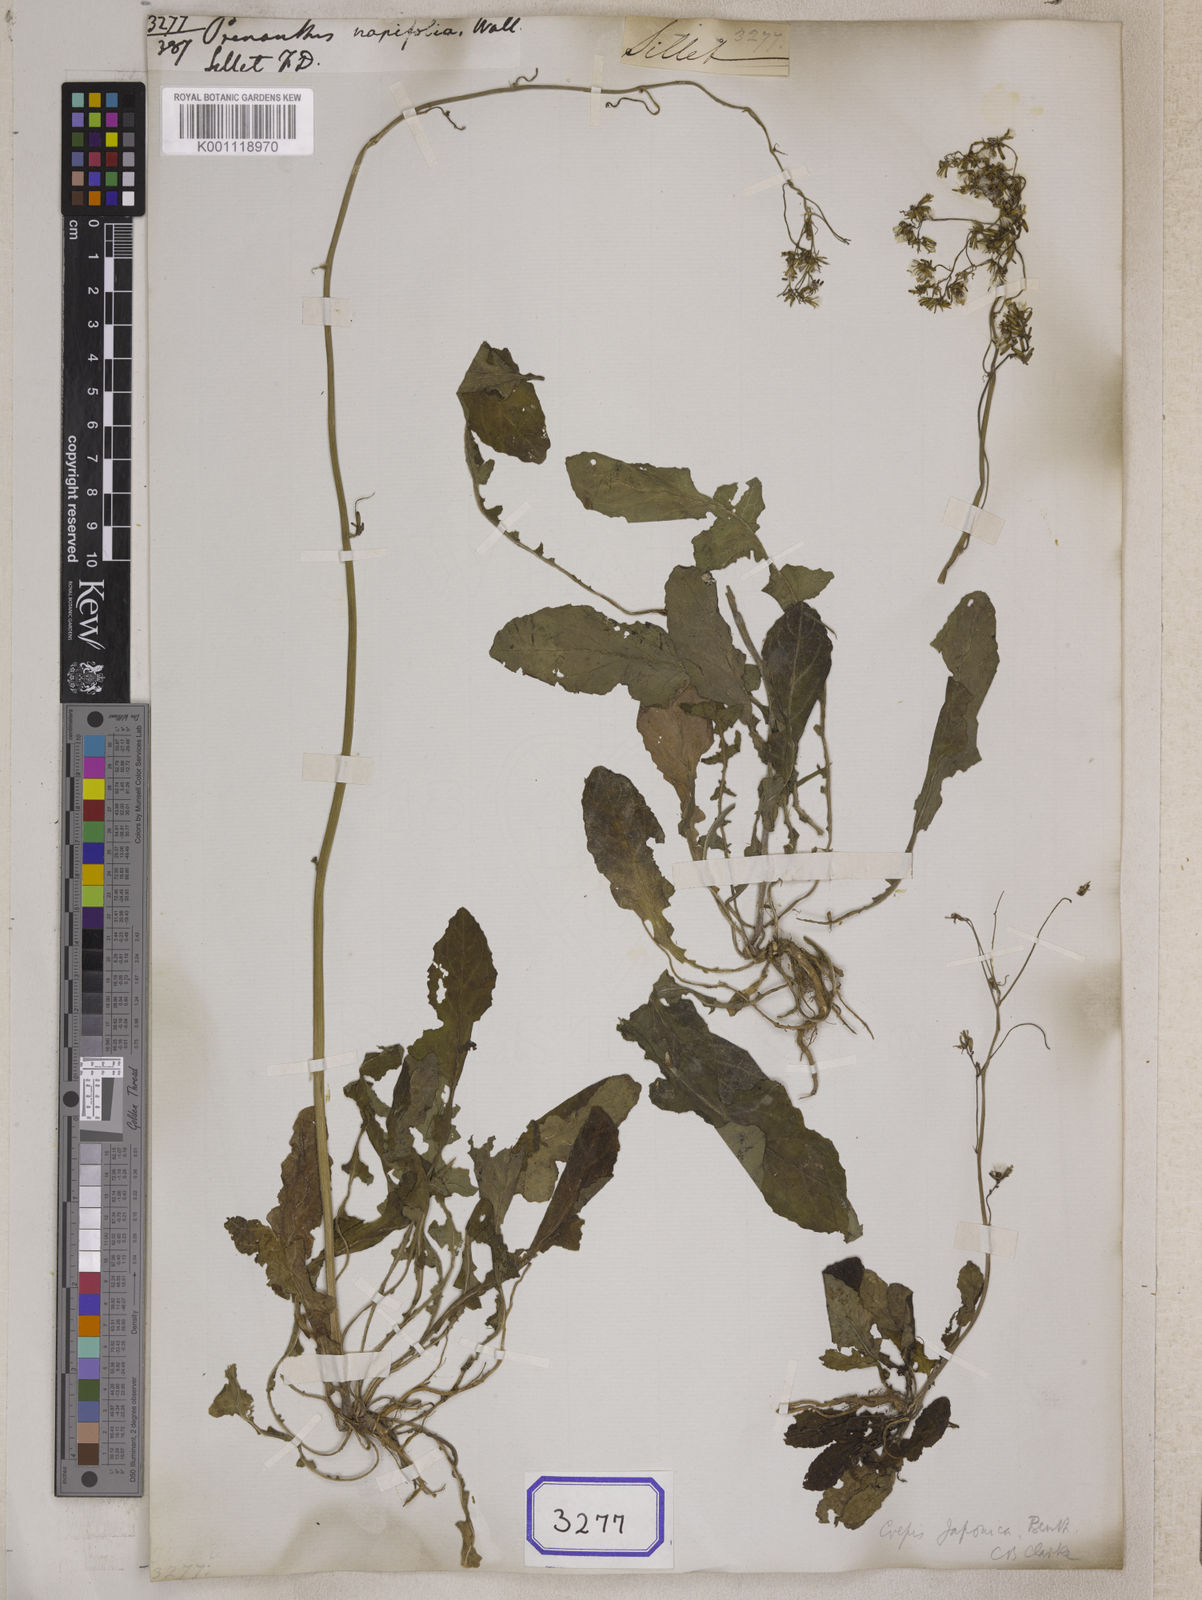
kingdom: Plantae
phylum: Tracheophyta
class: Magnoliopsida
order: Asterales
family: Asteraceae
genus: Youngia
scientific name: Youngia japonica
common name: Oriental false hawksbeard
